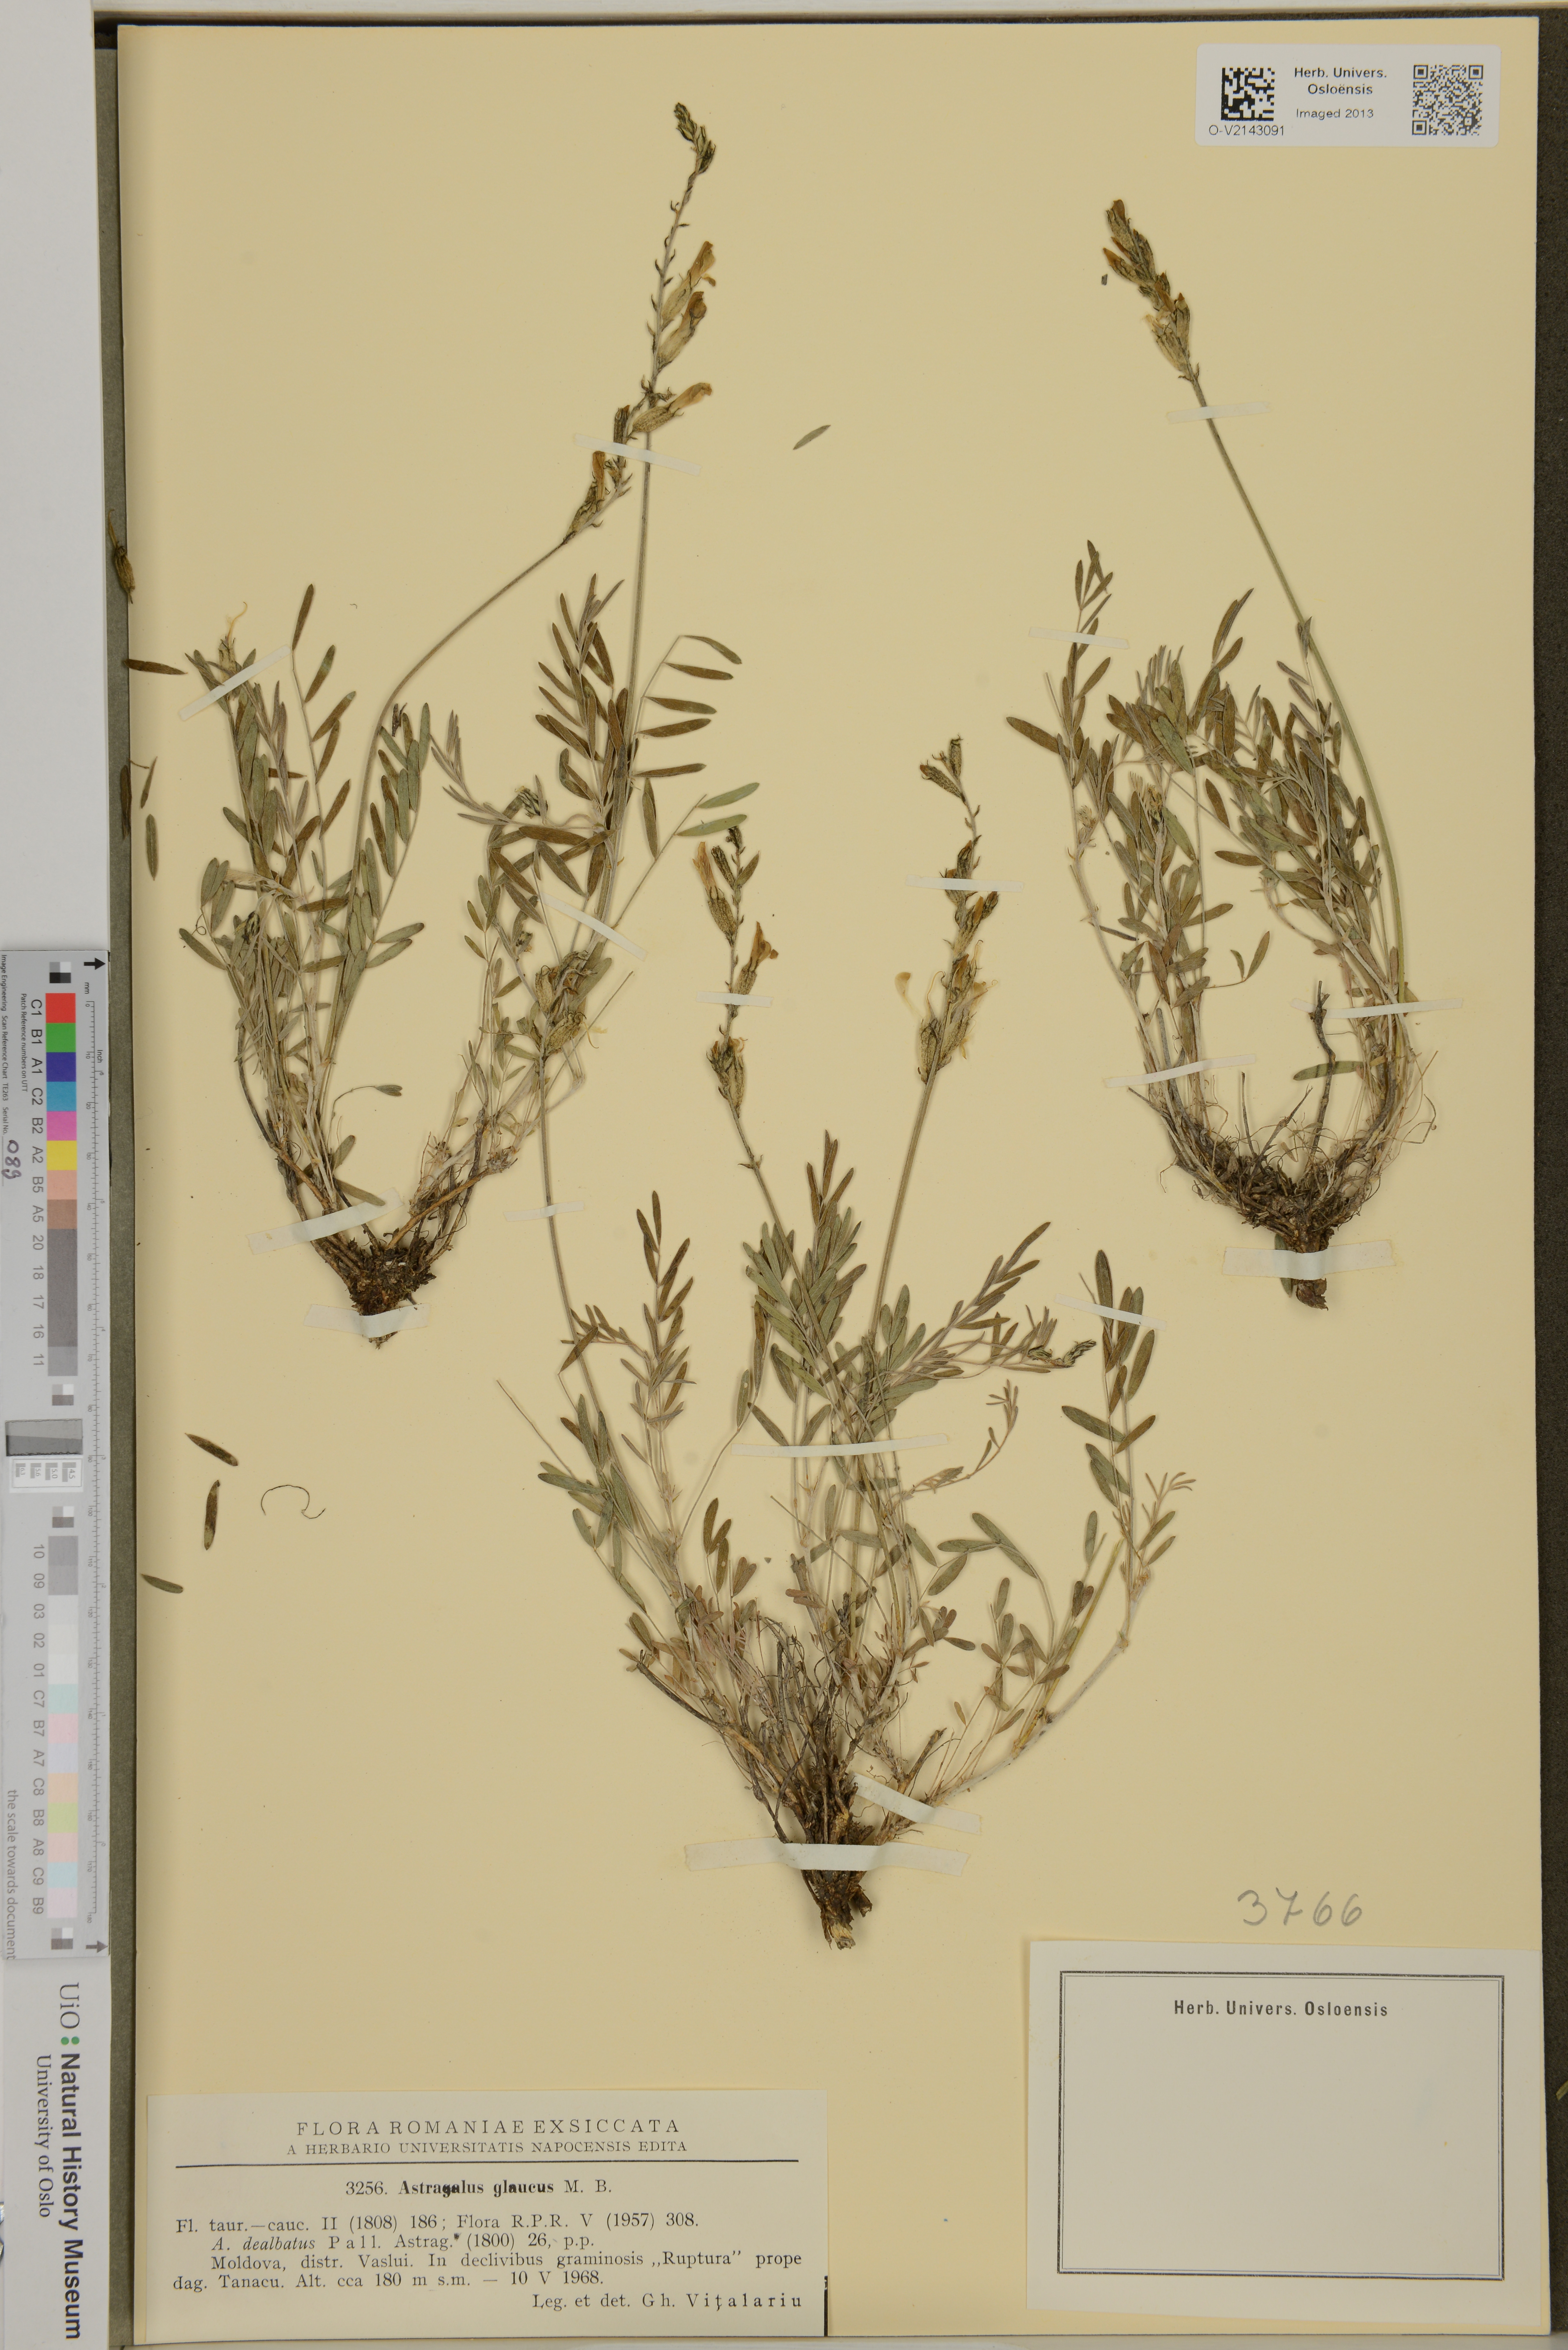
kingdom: Plantae
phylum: Tracheophyta
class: Magnoliopsida
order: Fabales
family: Fabaceae
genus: Astragalus
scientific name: Astragalus albicaulis
